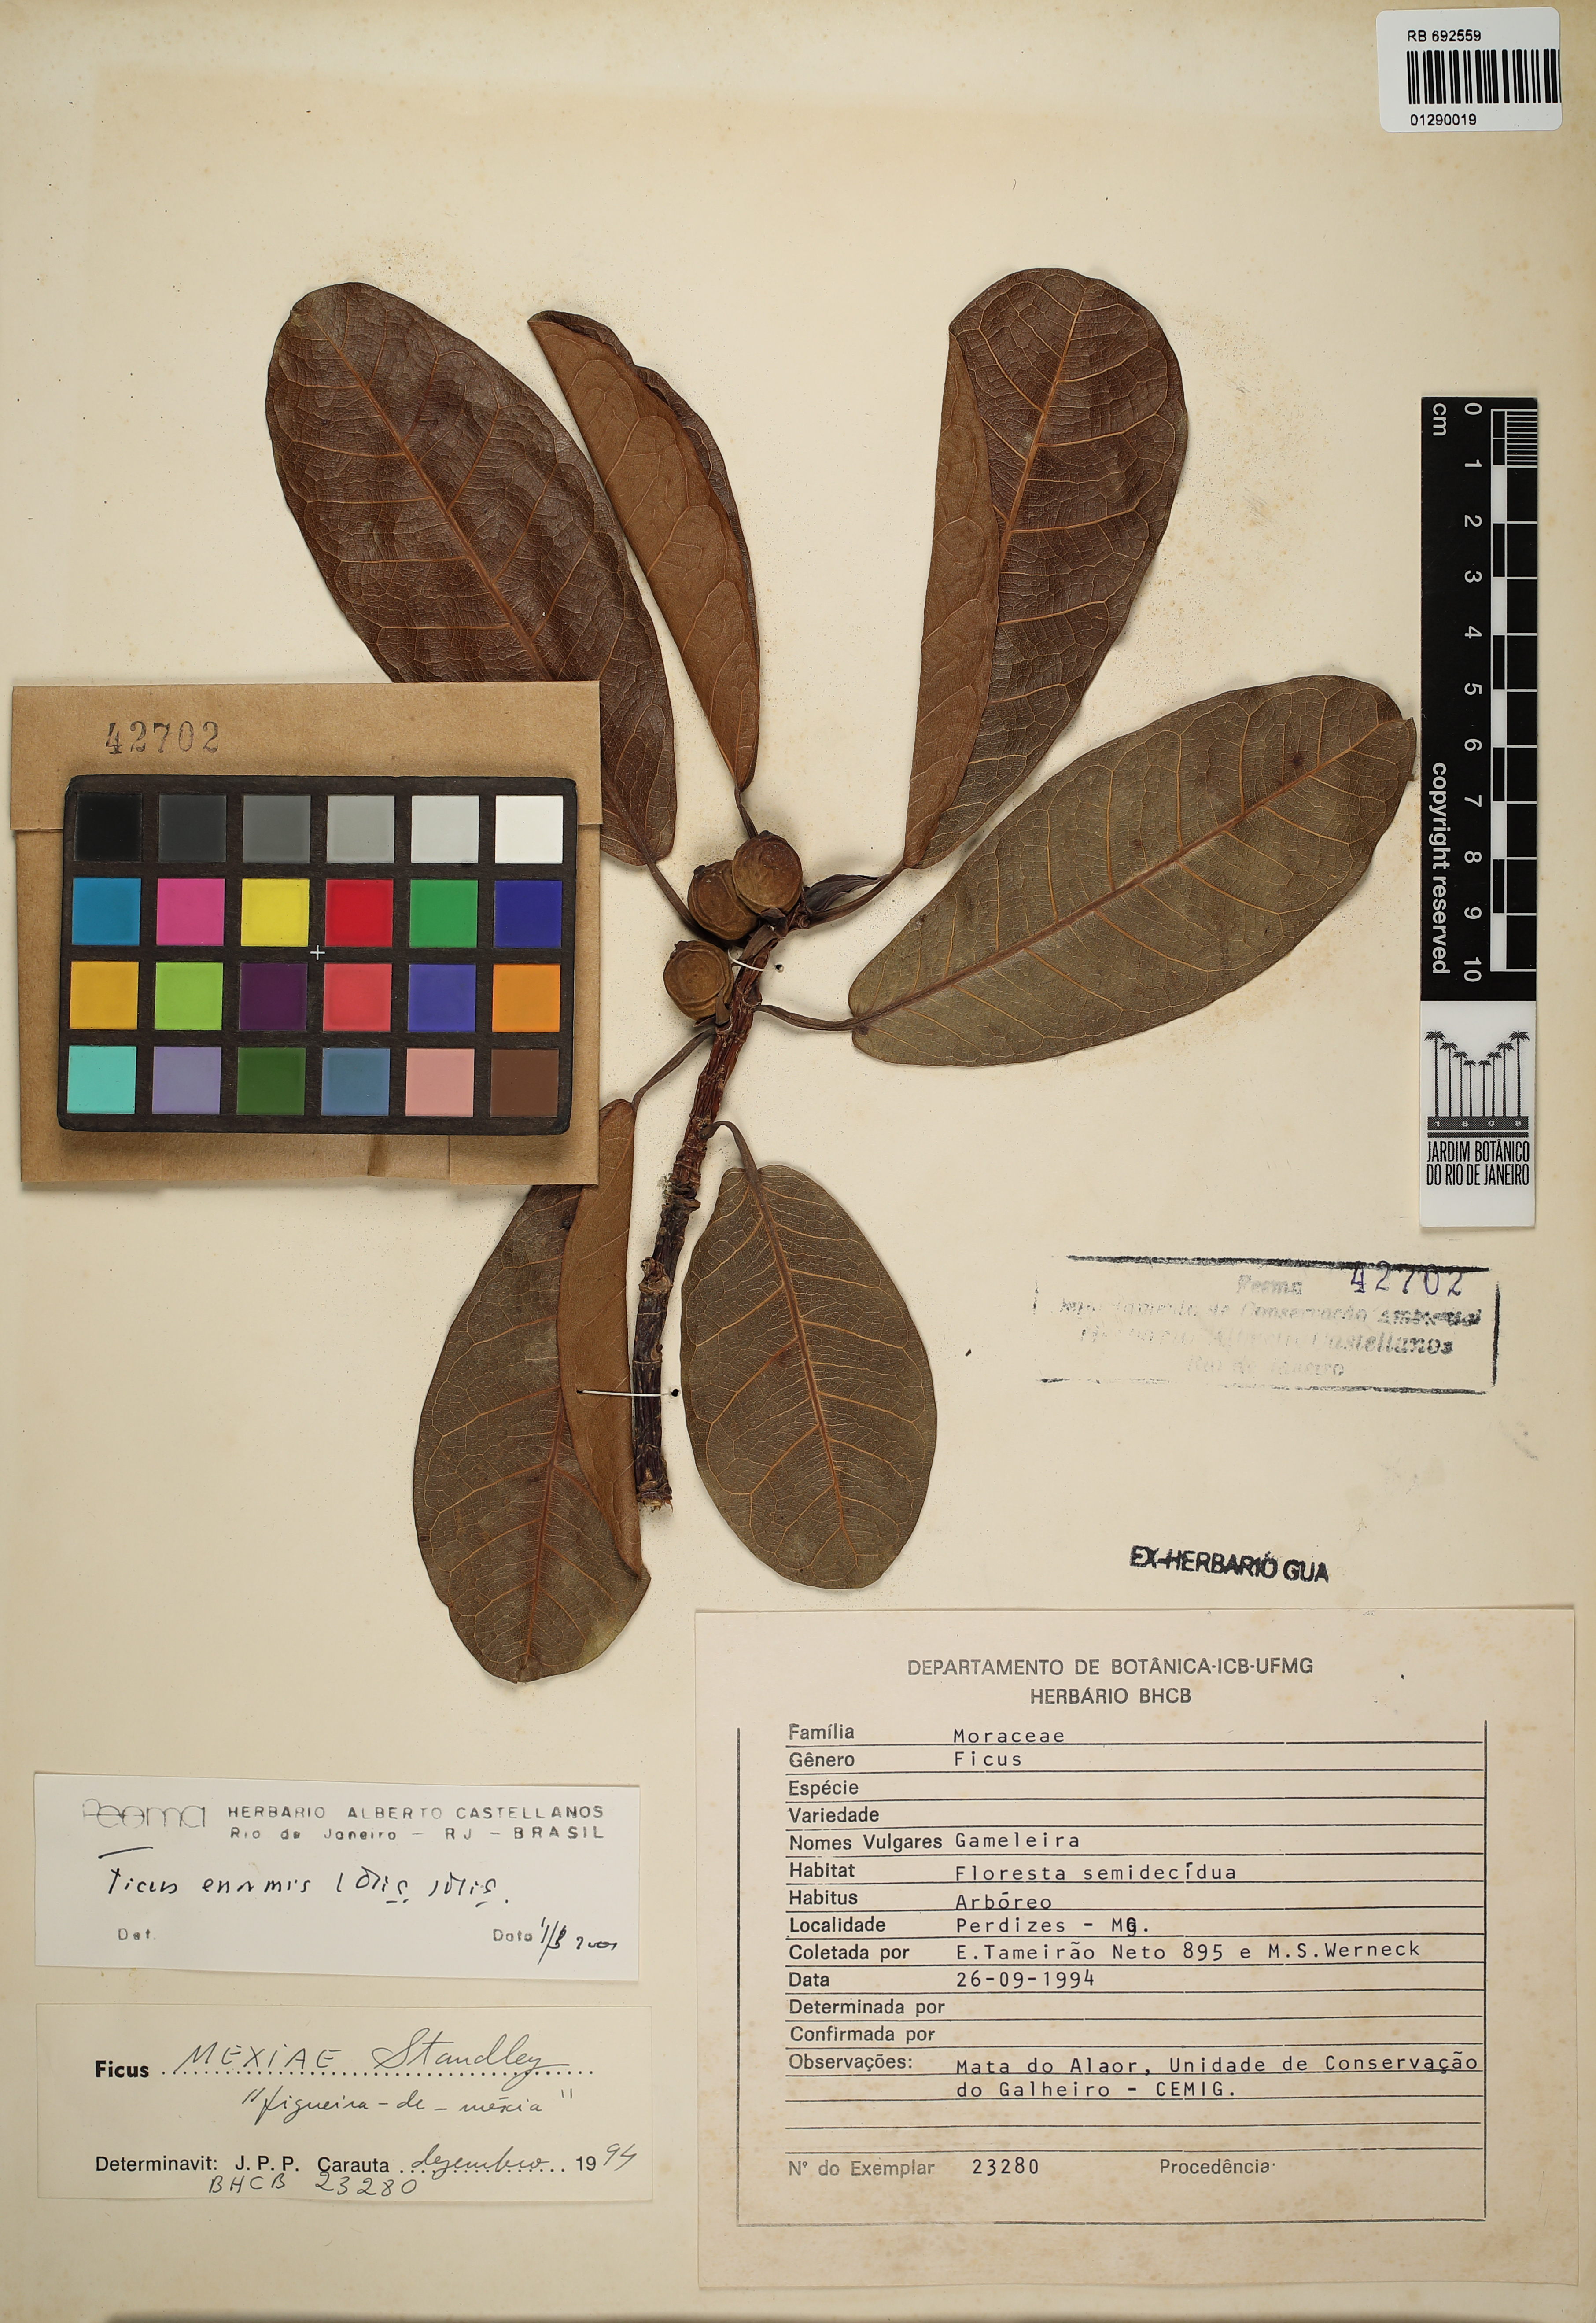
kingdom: Plantae
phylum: Tracheophyta
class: Magnoliopsida
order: Rosales
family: Moraceae
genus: Ficus
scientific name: Ficus enormis
